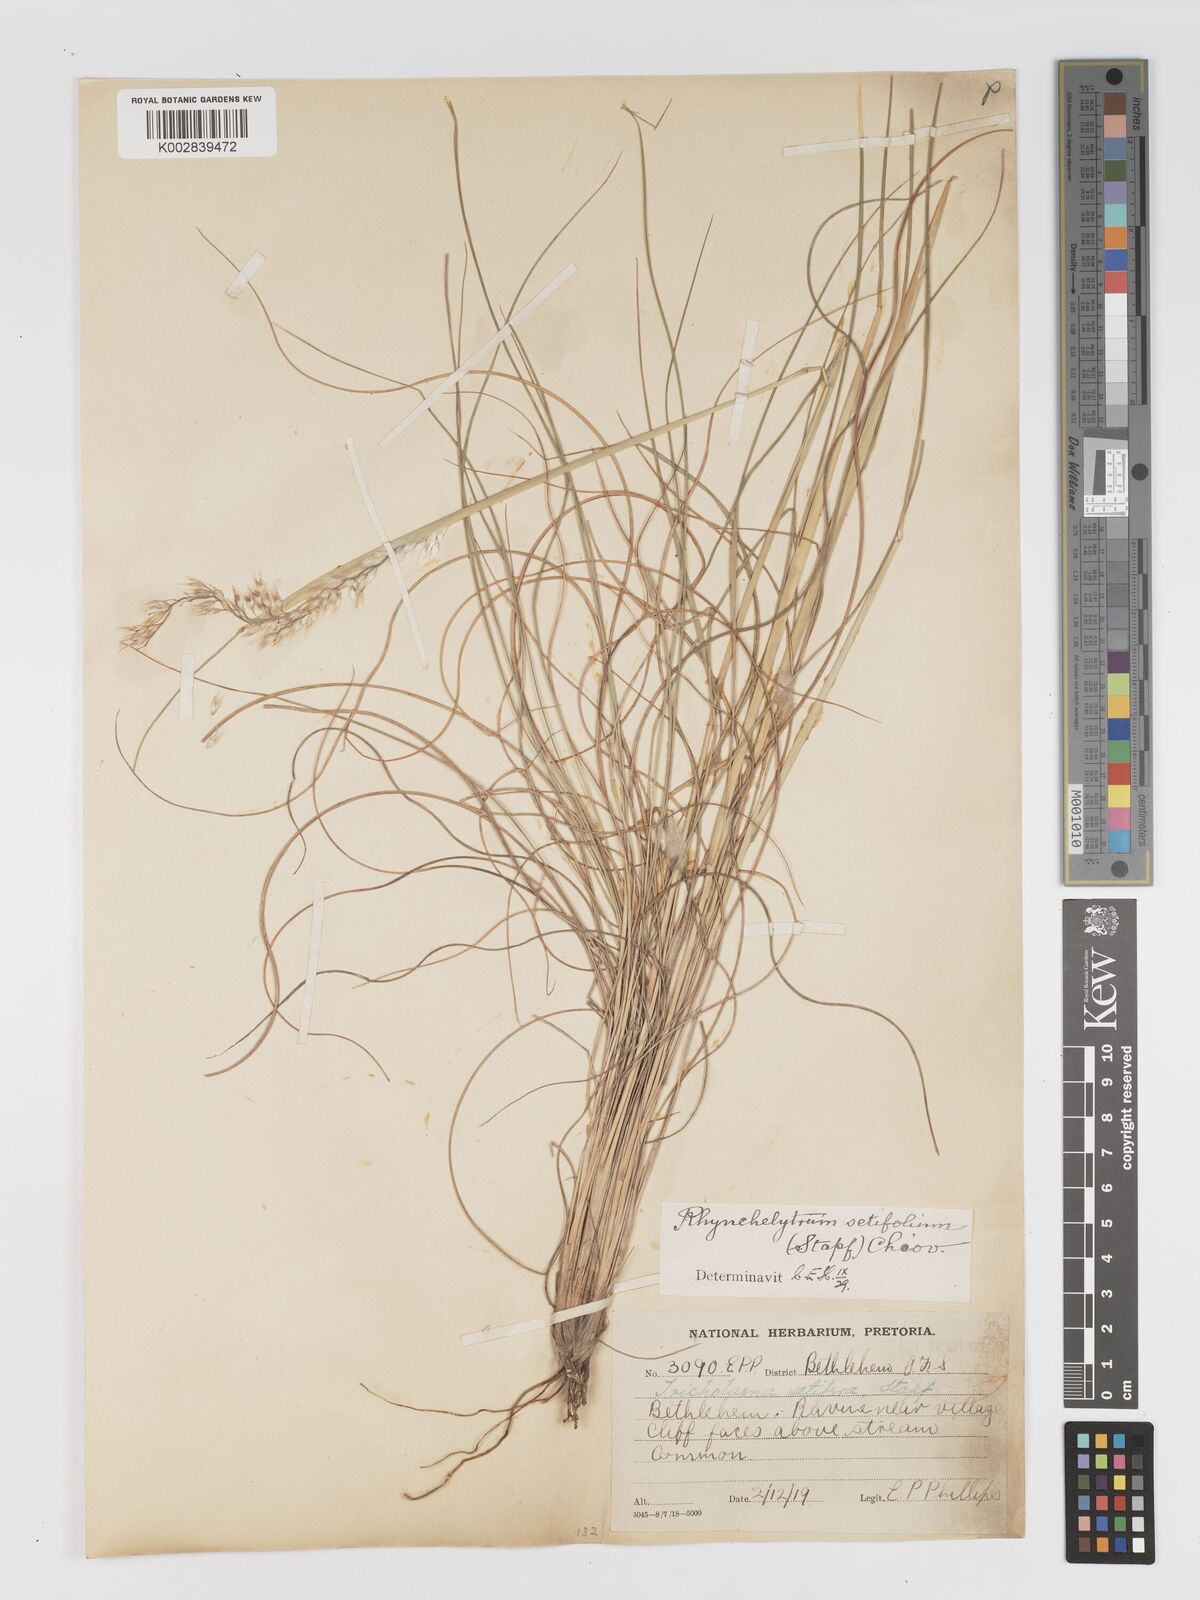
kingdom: Plantae
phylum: Tracheophyta
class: Liliopsida
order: Poales
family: Poaceae
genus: Melinis
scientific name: Melinis nerviglumis
